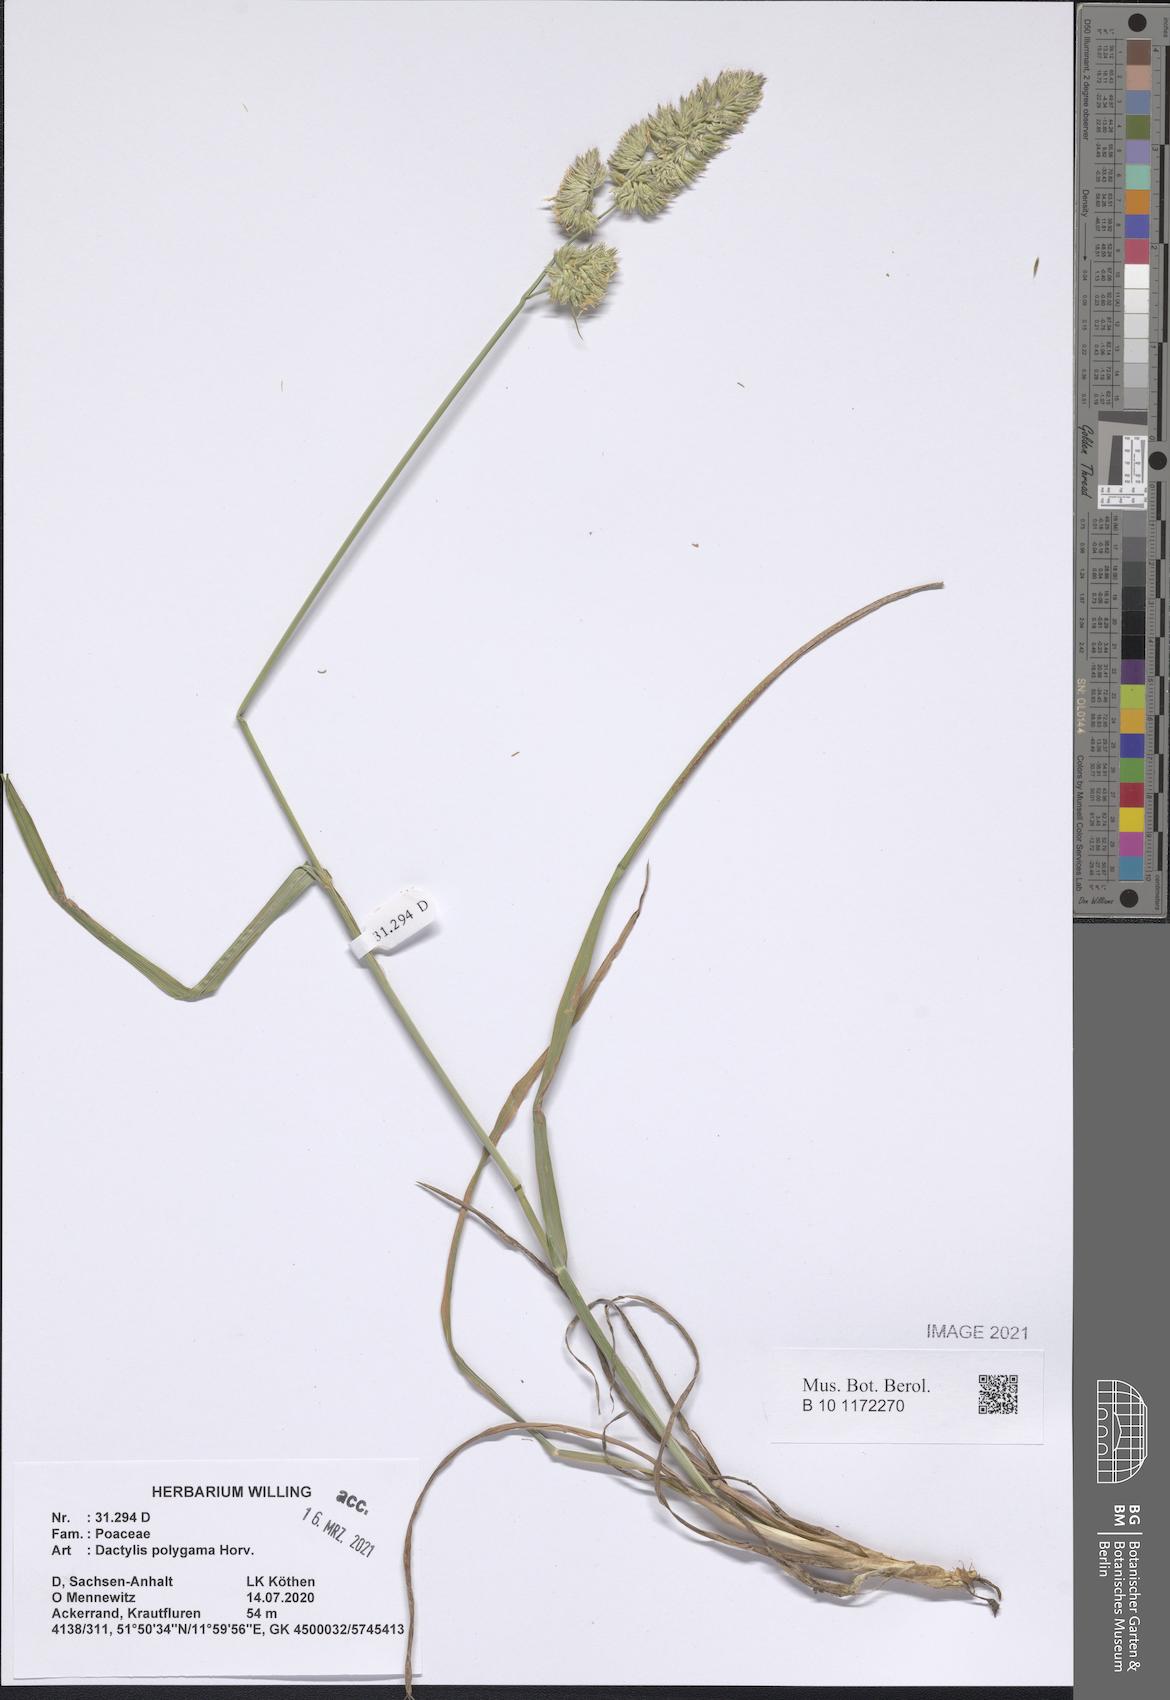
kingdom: Plantae
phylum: Tracheophyta
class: Liliopsida
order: Poales
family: Poaceae
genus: Dactylis
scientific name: Dactylis glomerata
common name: Orchardgrass
